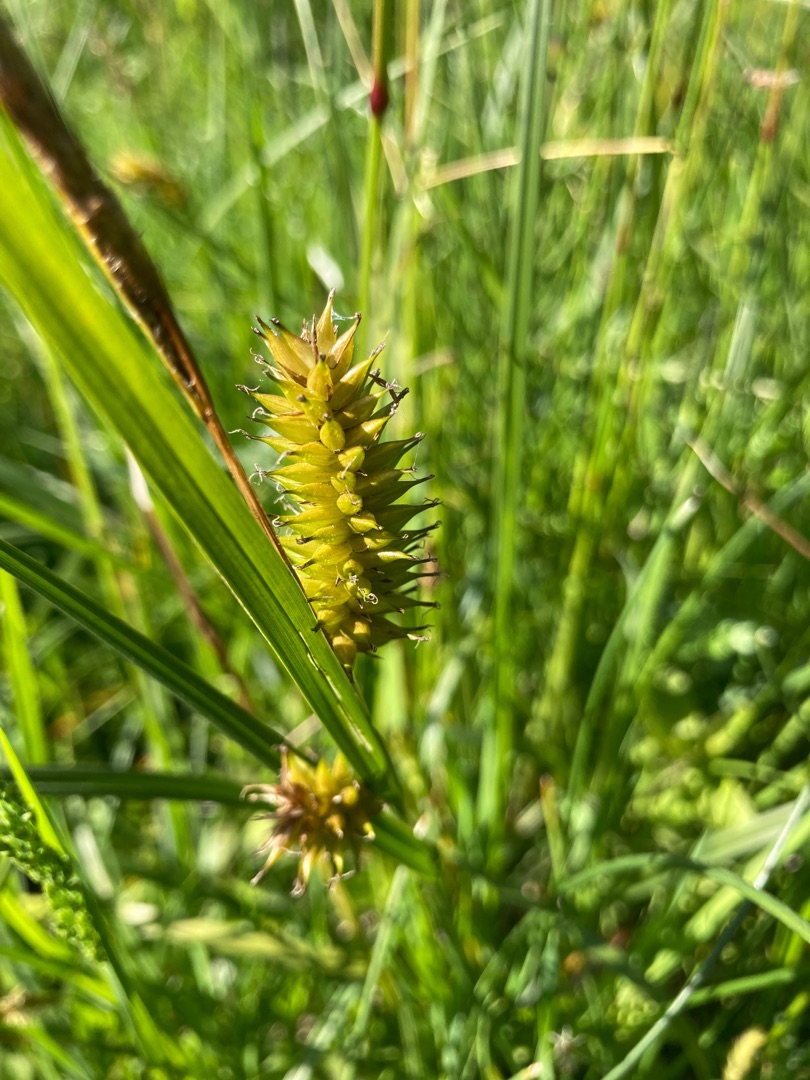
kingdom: Plantae
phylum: Tracheophyta
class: Liliopsida
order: Poales
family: Cyperaceae
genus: Carex
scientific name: Carex vesicaria
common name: Blære-star
